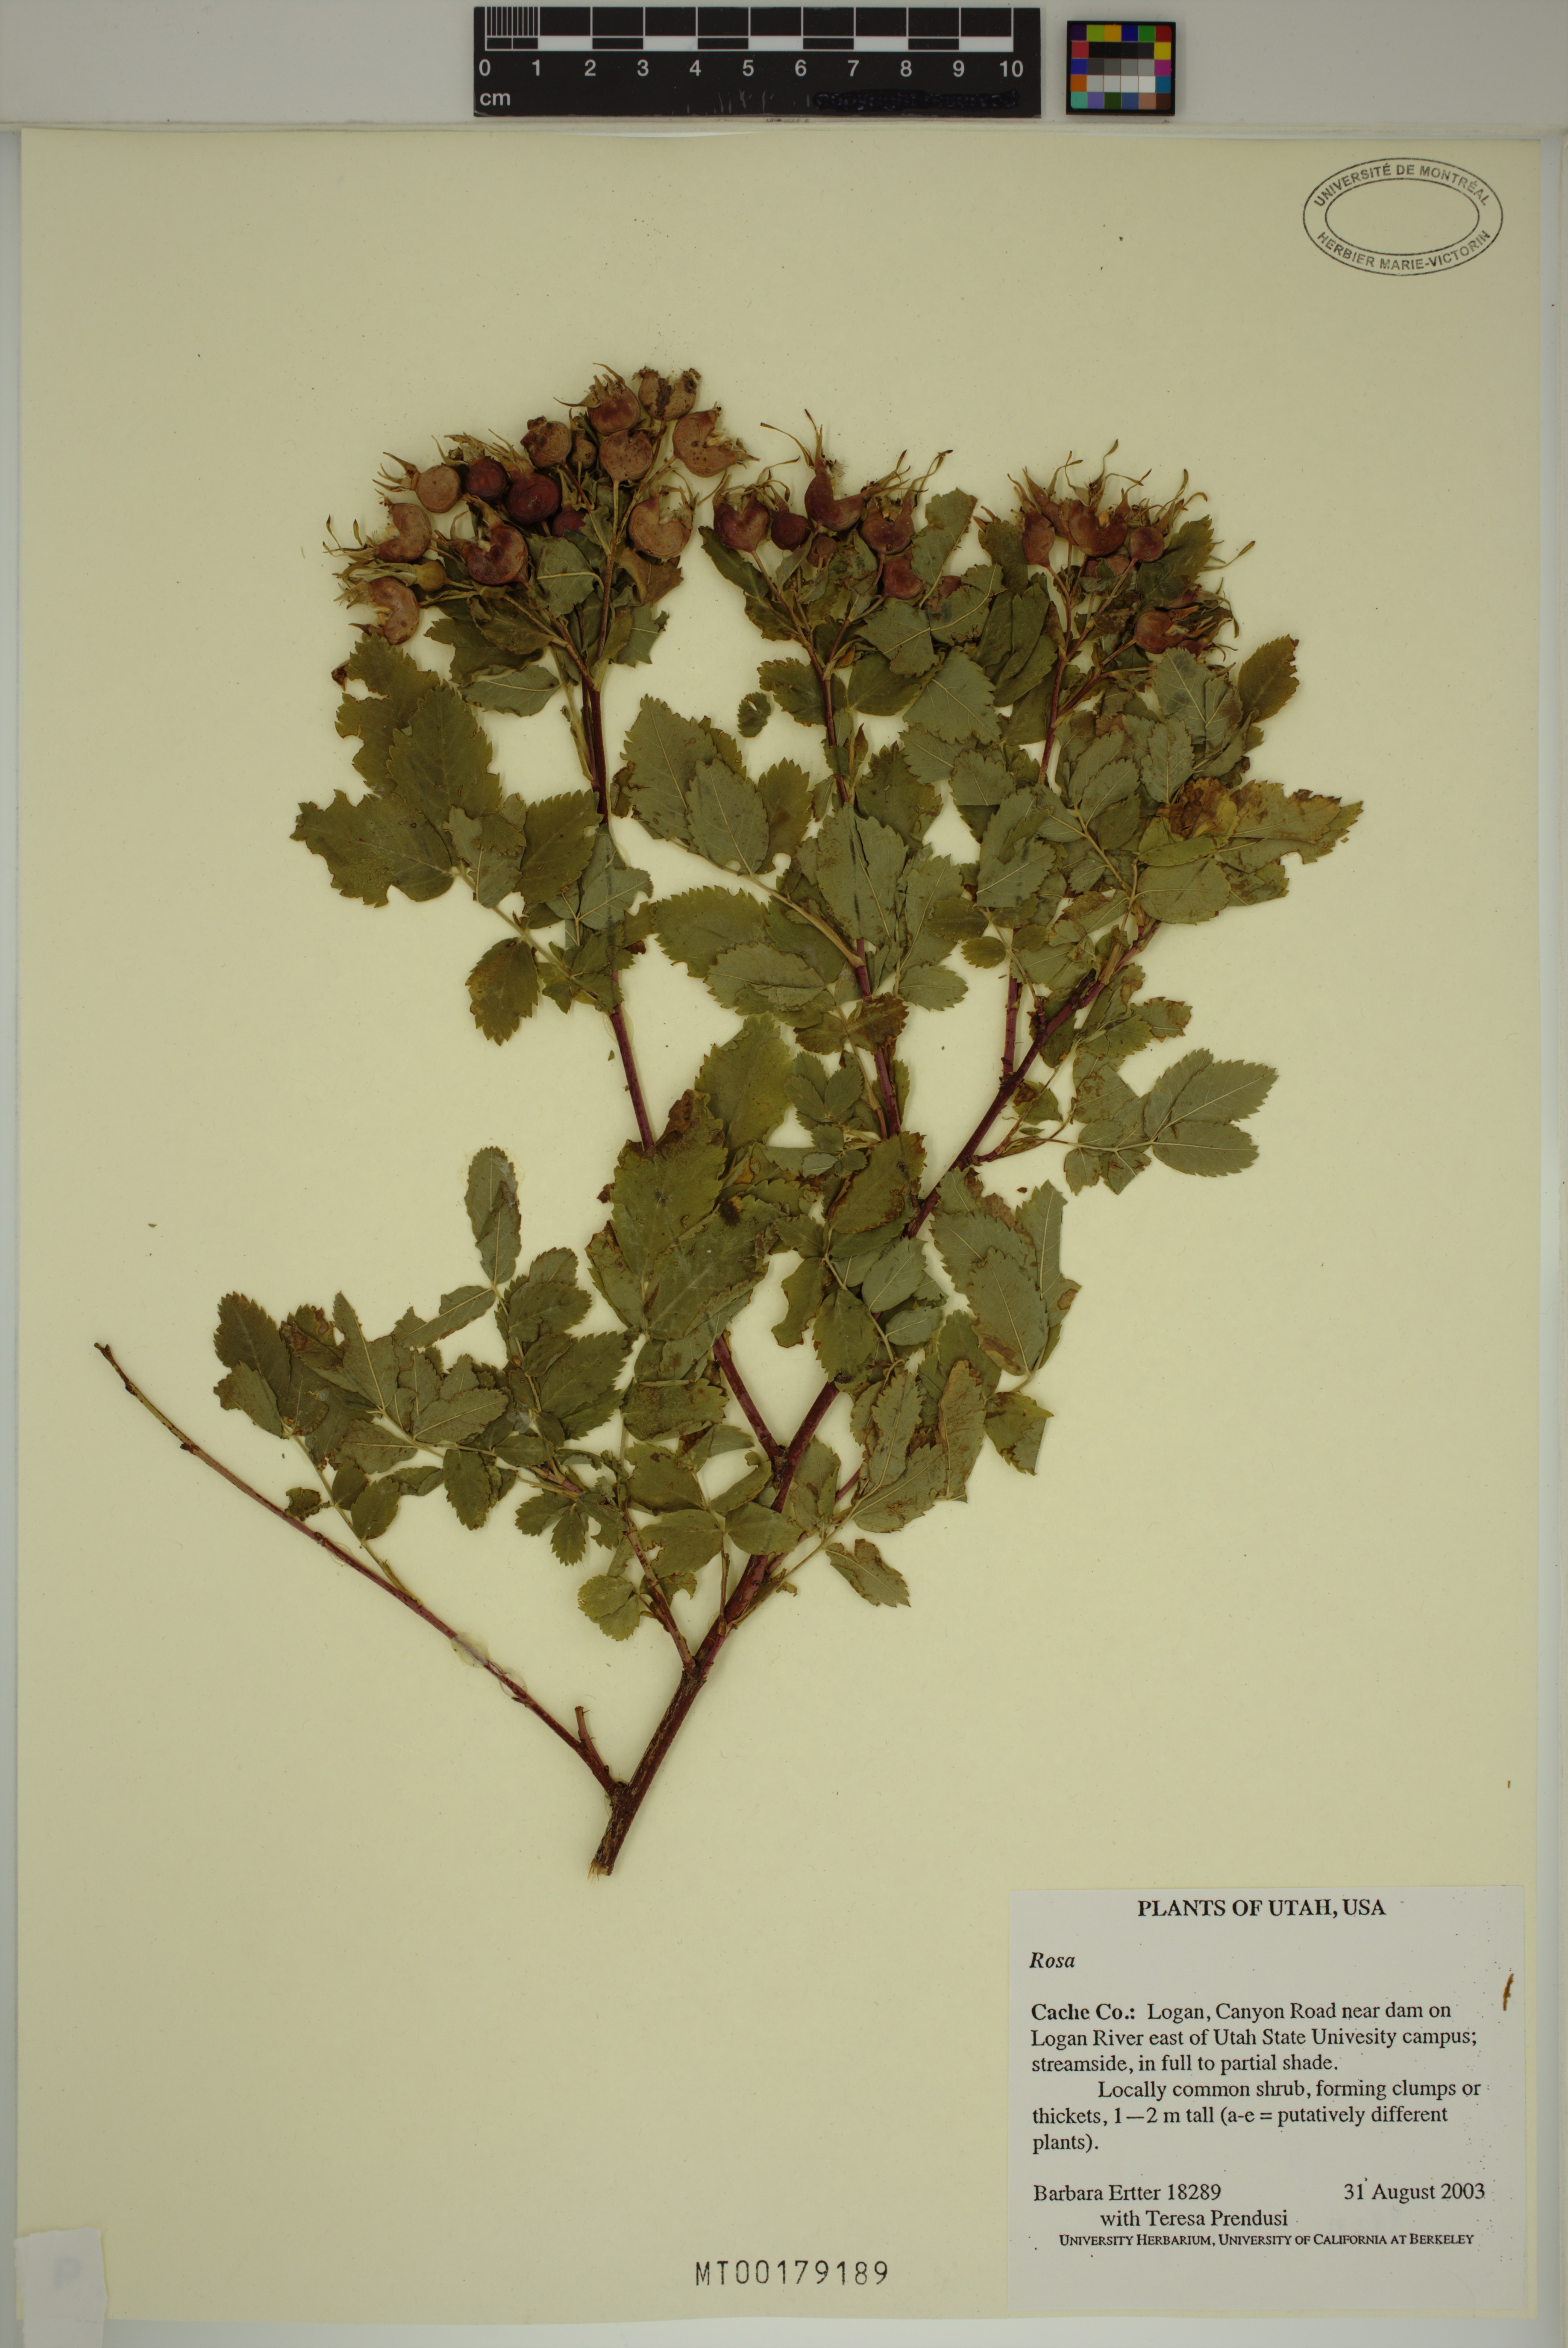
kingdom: Plantae
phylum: Tracheophyta
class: Magnoliopsida
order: Rosales
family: Rosaceae
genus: Rosa
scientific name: Rosa
